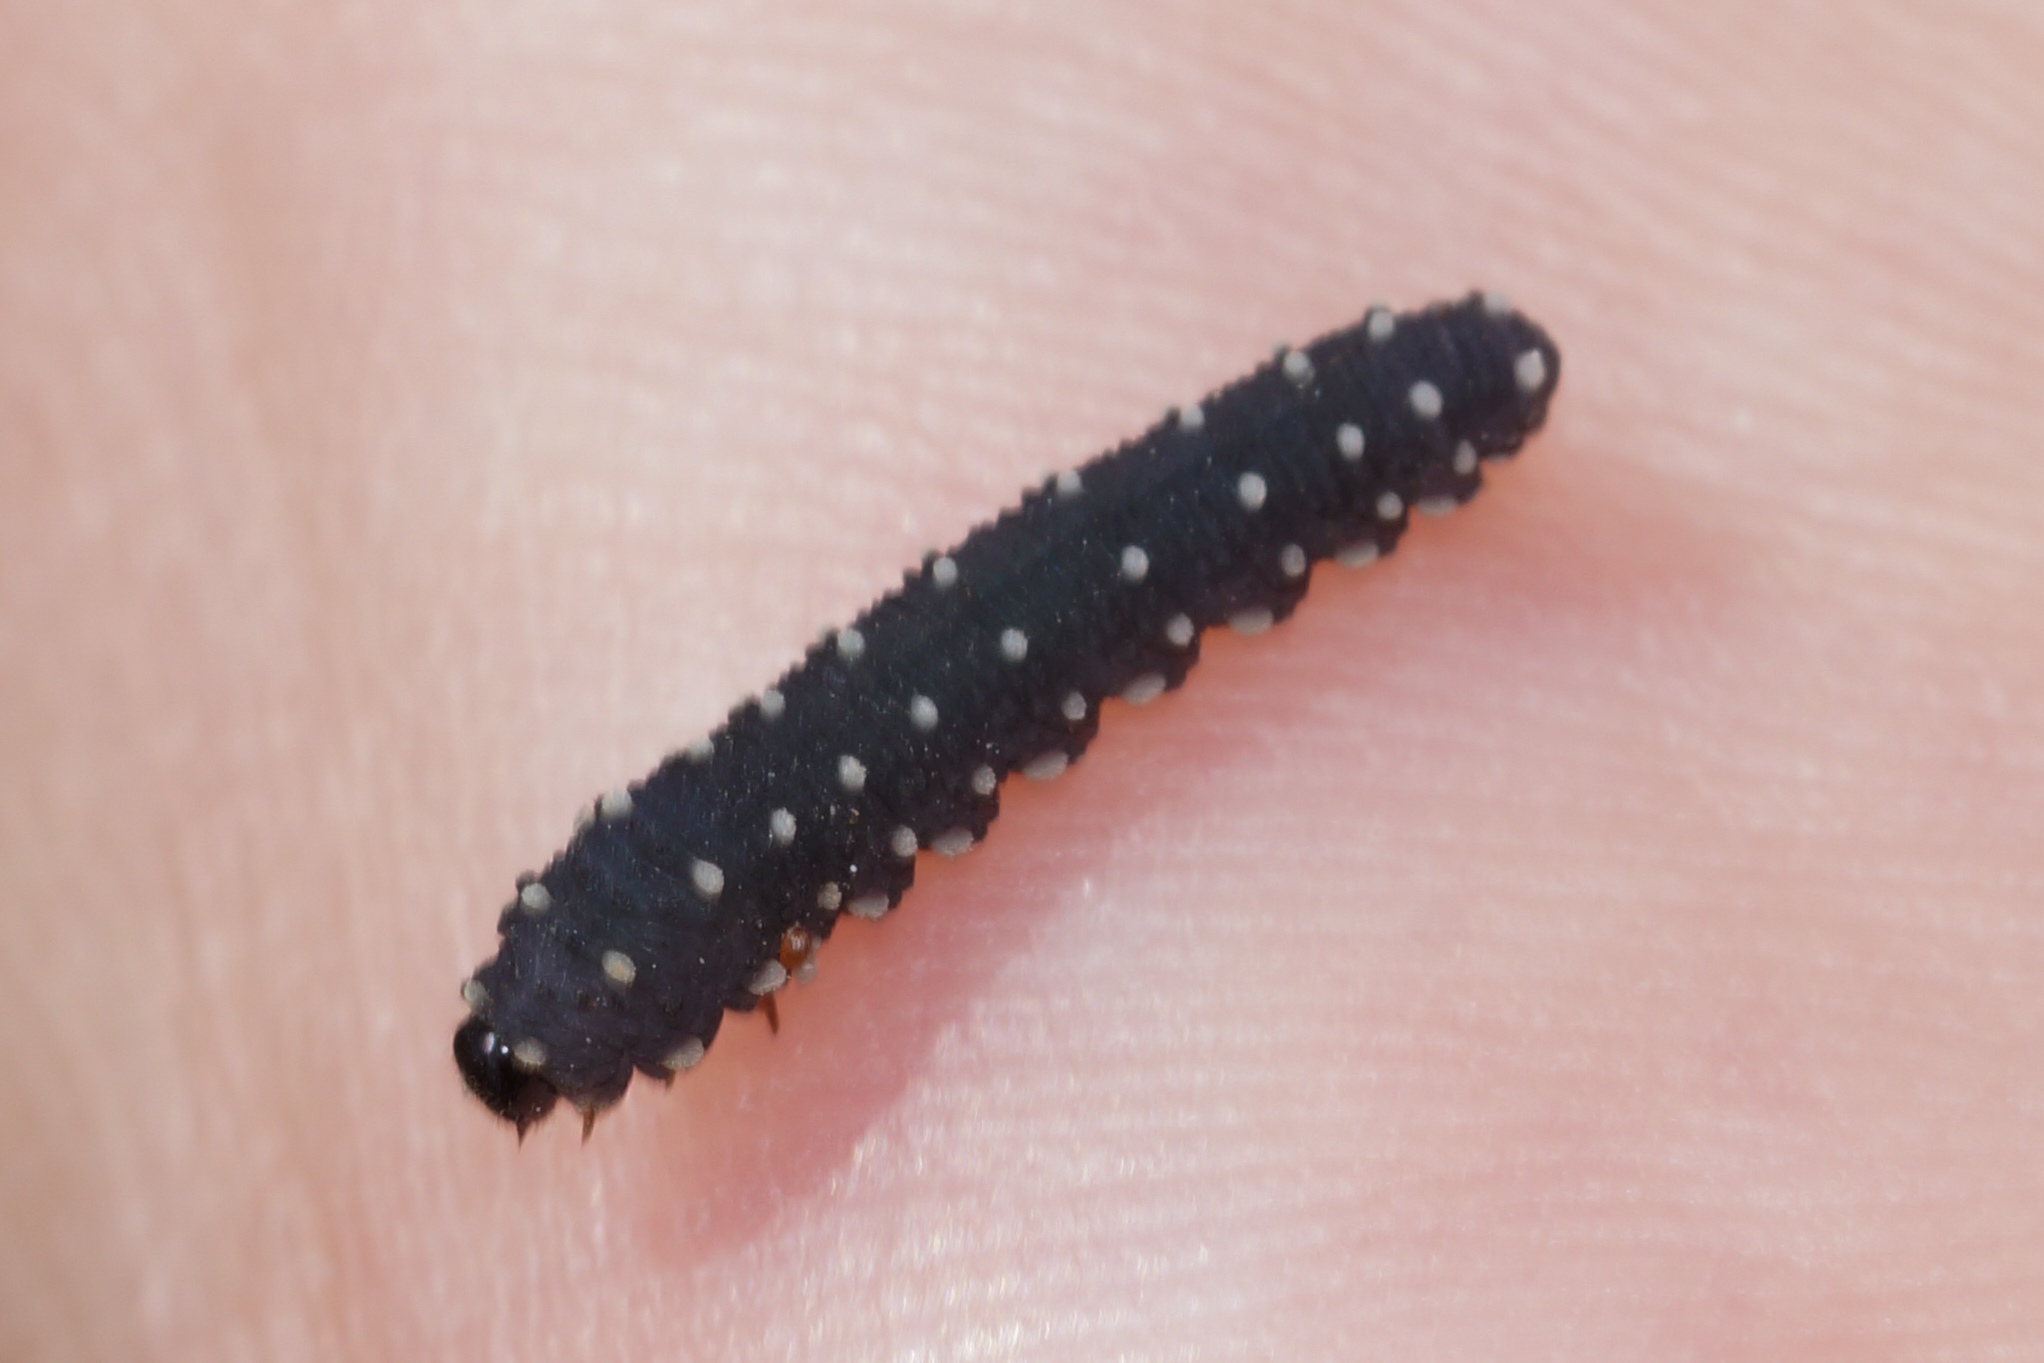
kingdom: Animalia
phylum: Arthropoda
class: Insecta
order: Hymenoptera
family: Tenthredinidae
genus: Athalia
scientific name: Athalia scutellariae
